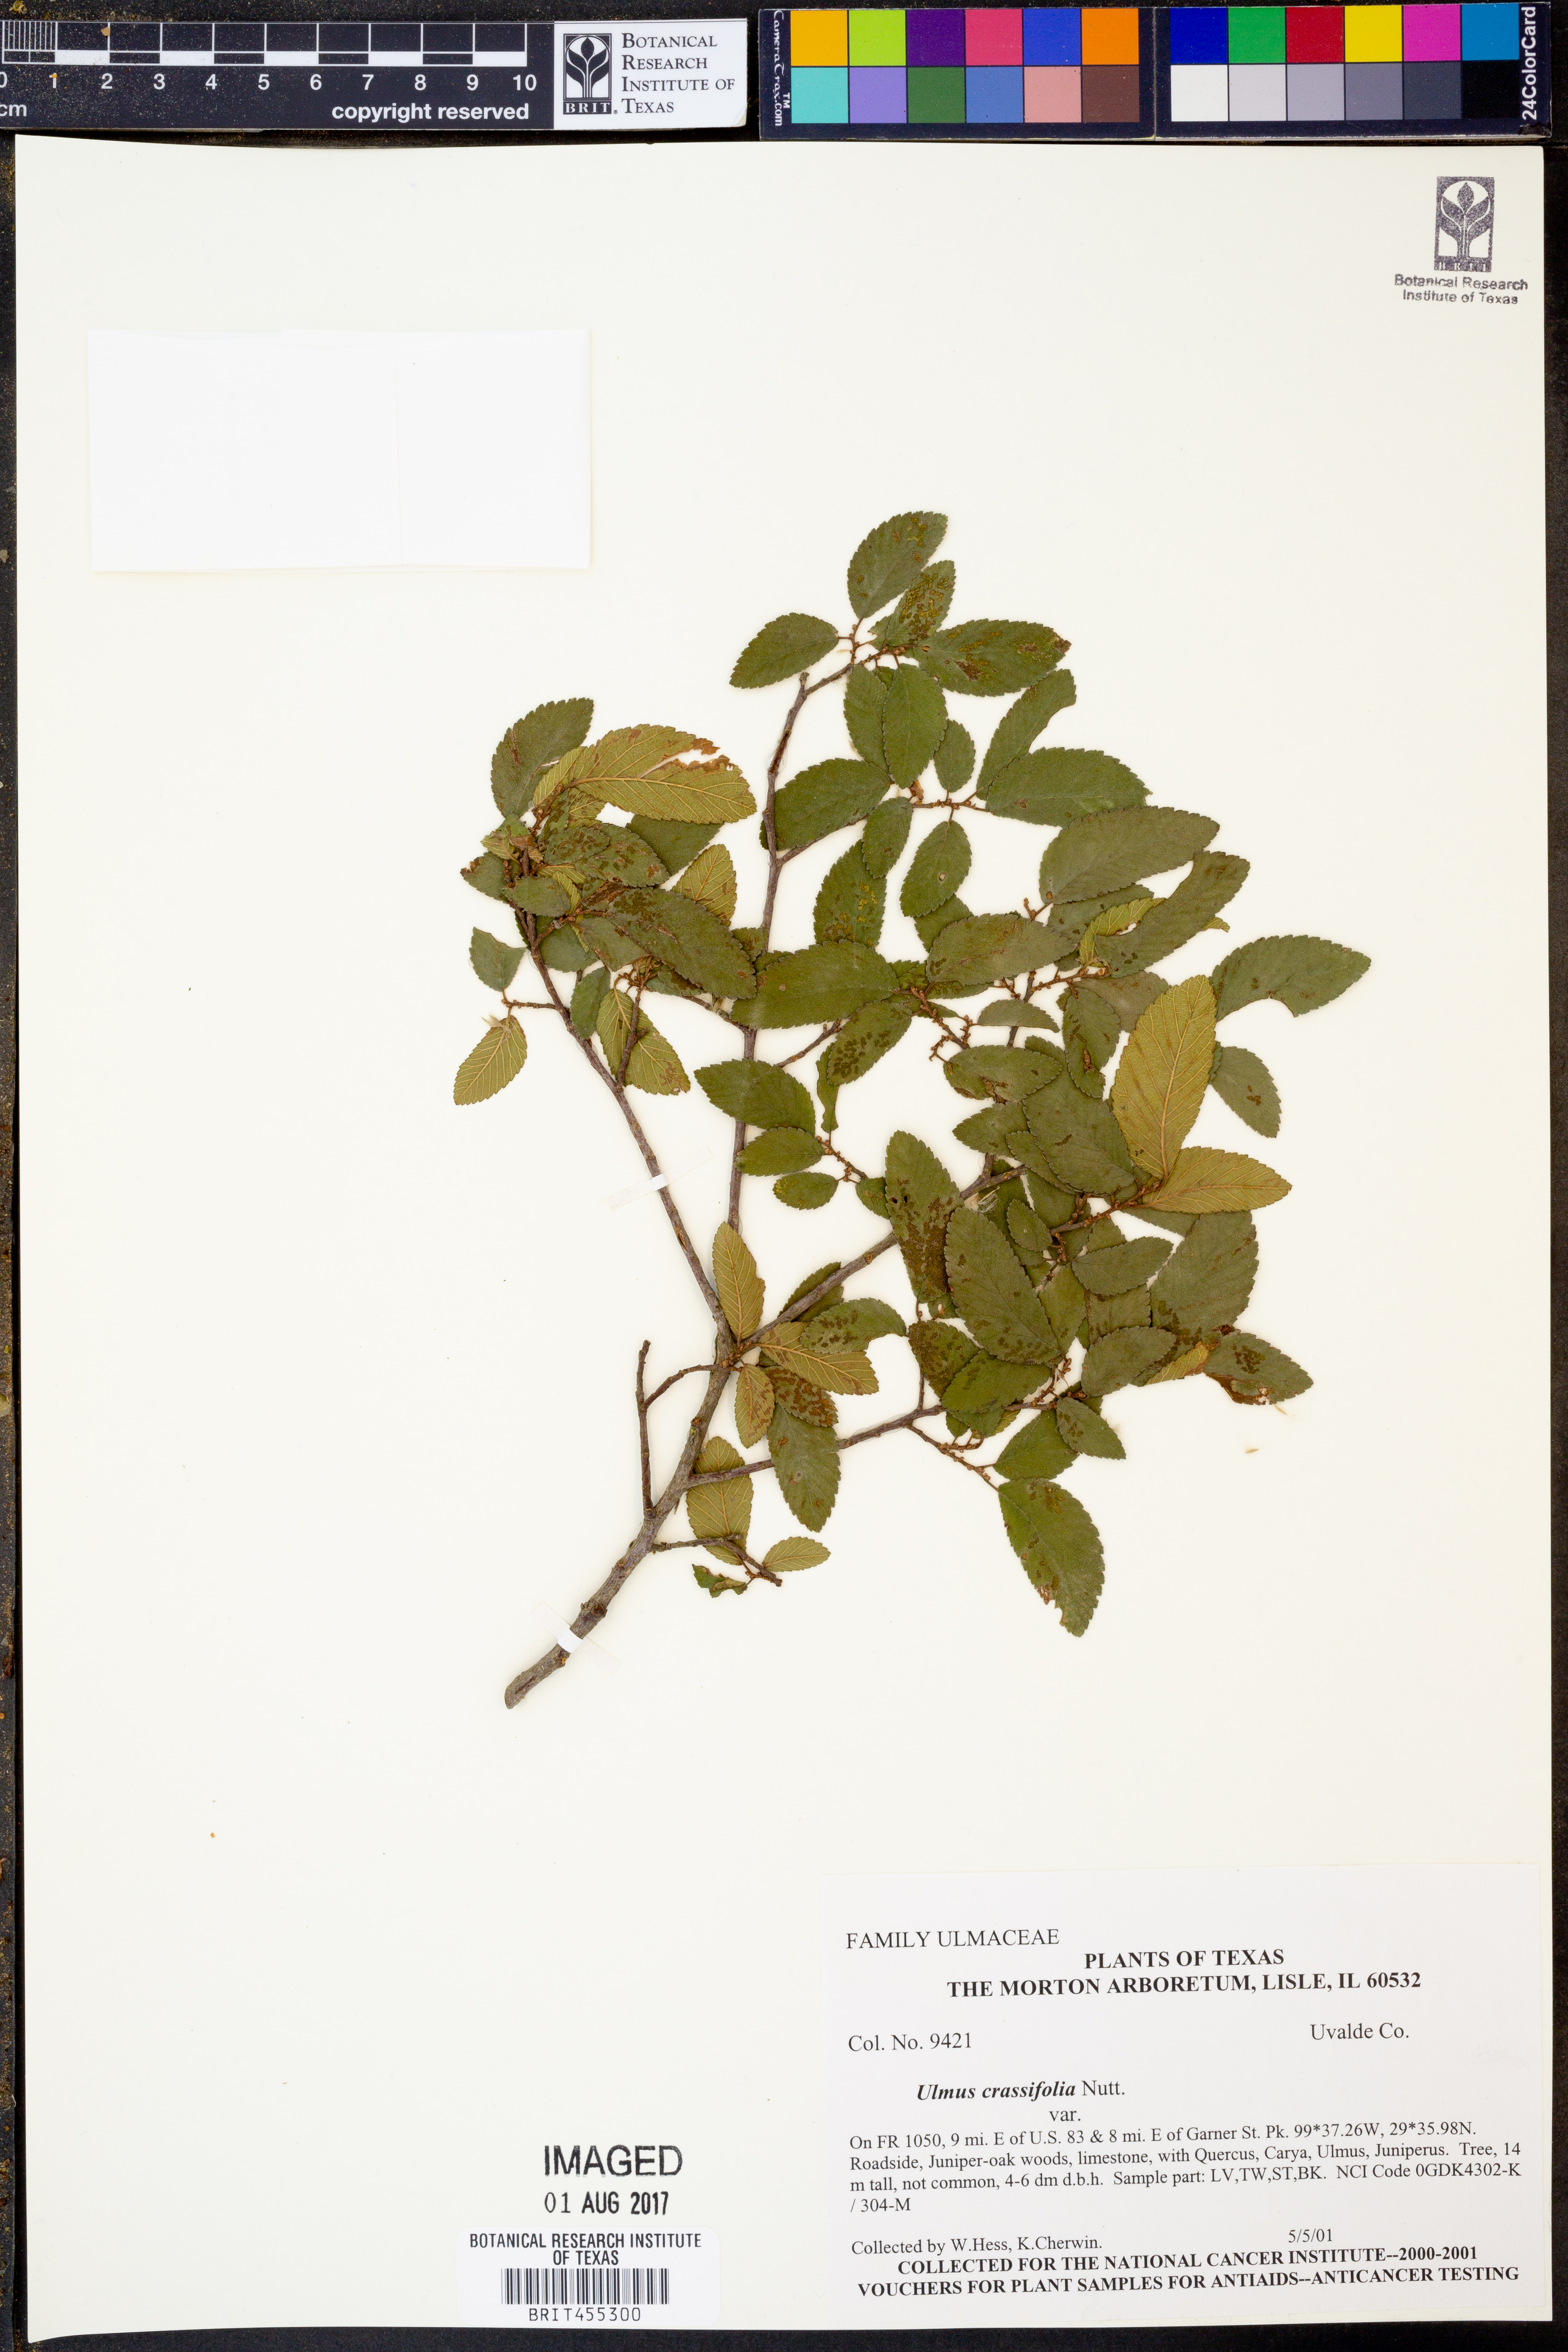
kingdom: Plantae
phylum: Tracheophyta
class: Magnoliopsida
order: Rosales
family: Ulmaceae
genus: Ulmus
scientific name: Ulmus crassifolia
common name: Basket elm
